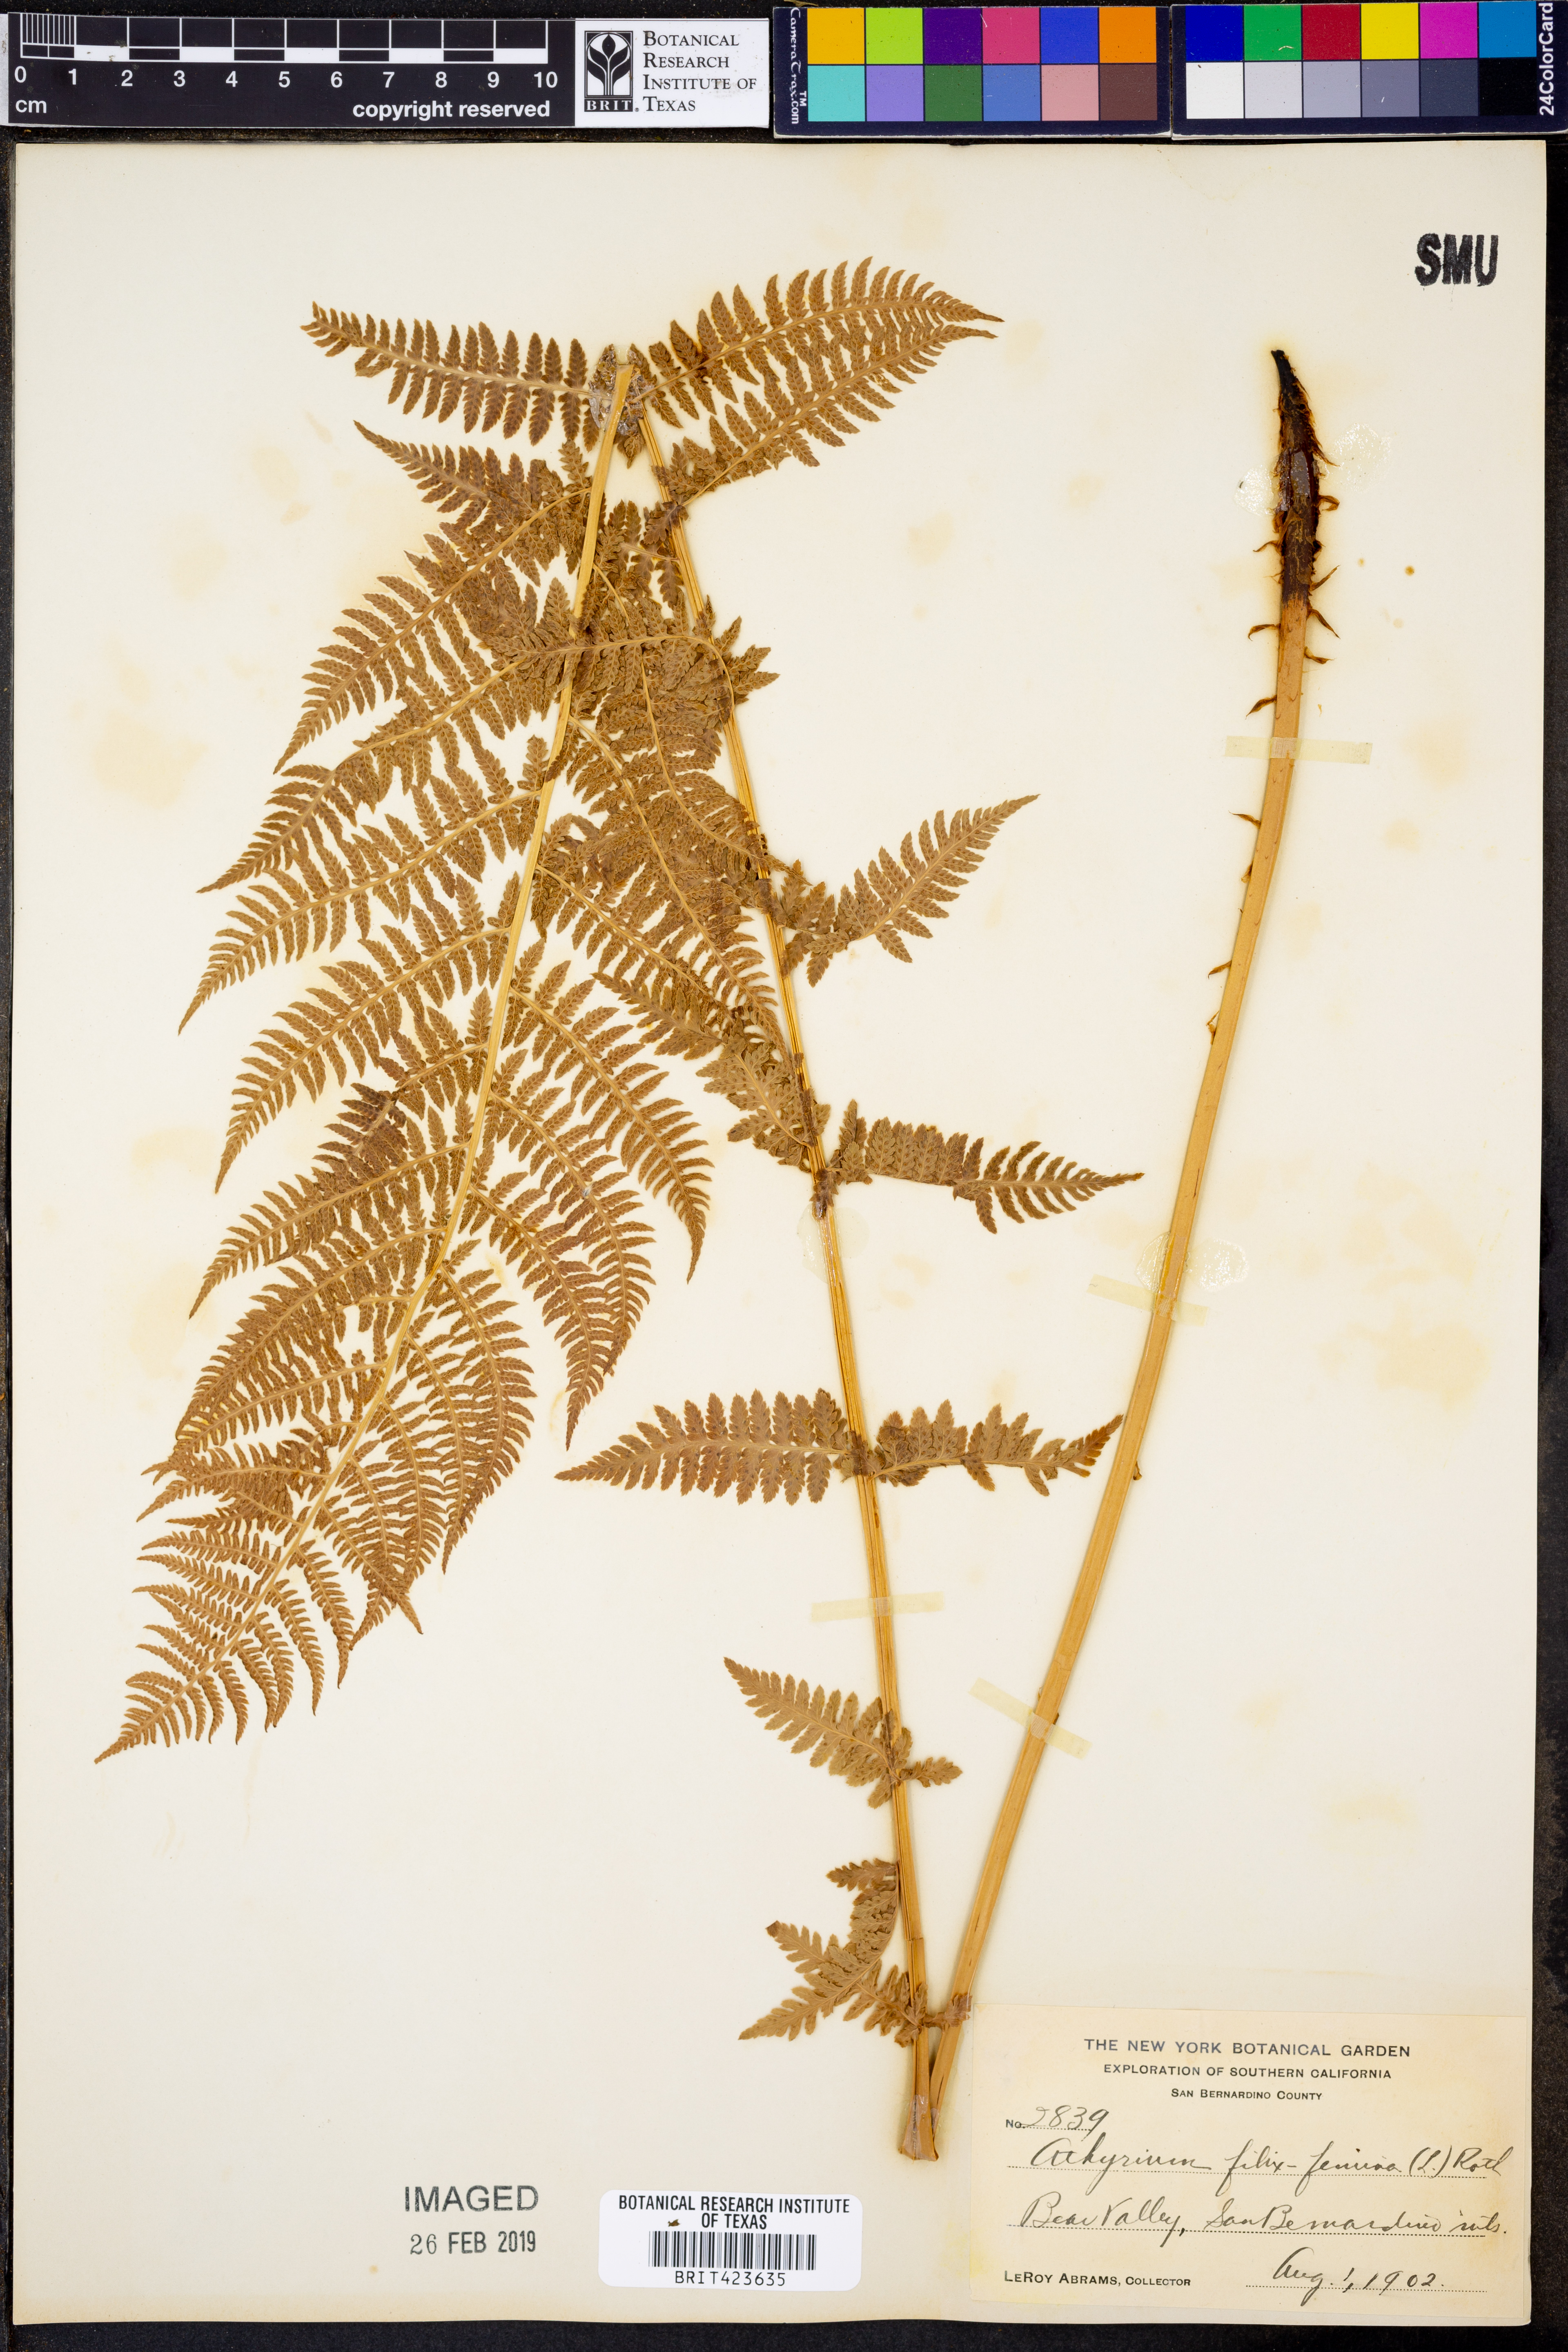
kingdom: Plantae
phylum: Tracheophyta
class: Polypodiopsida
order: Polypodiales
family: Athyriaceae
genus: Athyrium
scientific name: Athyrium filix-femina
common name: Lady fern
